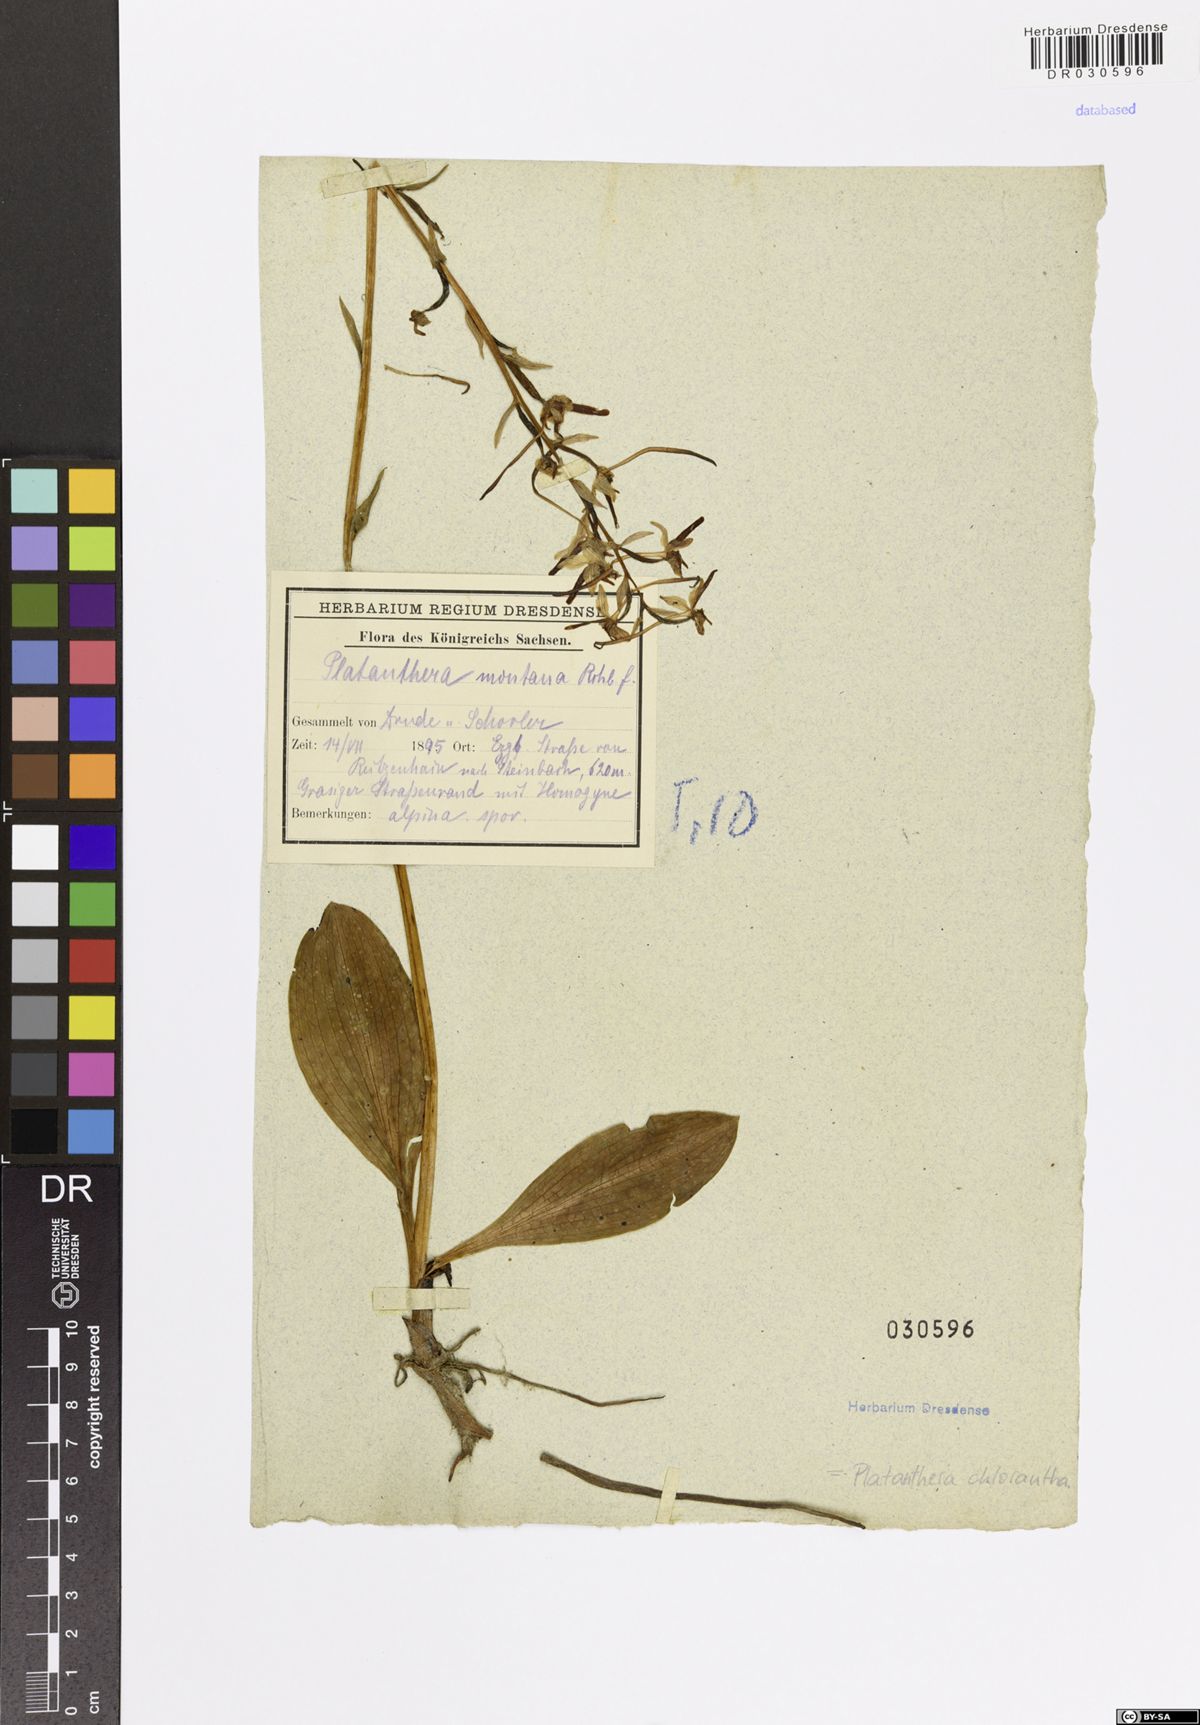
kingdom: Plantae
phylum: Tracheophyta
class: Liliopsida
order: Asparagales
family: Orchidaceae
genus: Platanthera
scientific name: Platanthera chlorantha
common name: Greater butterfly-orchid
